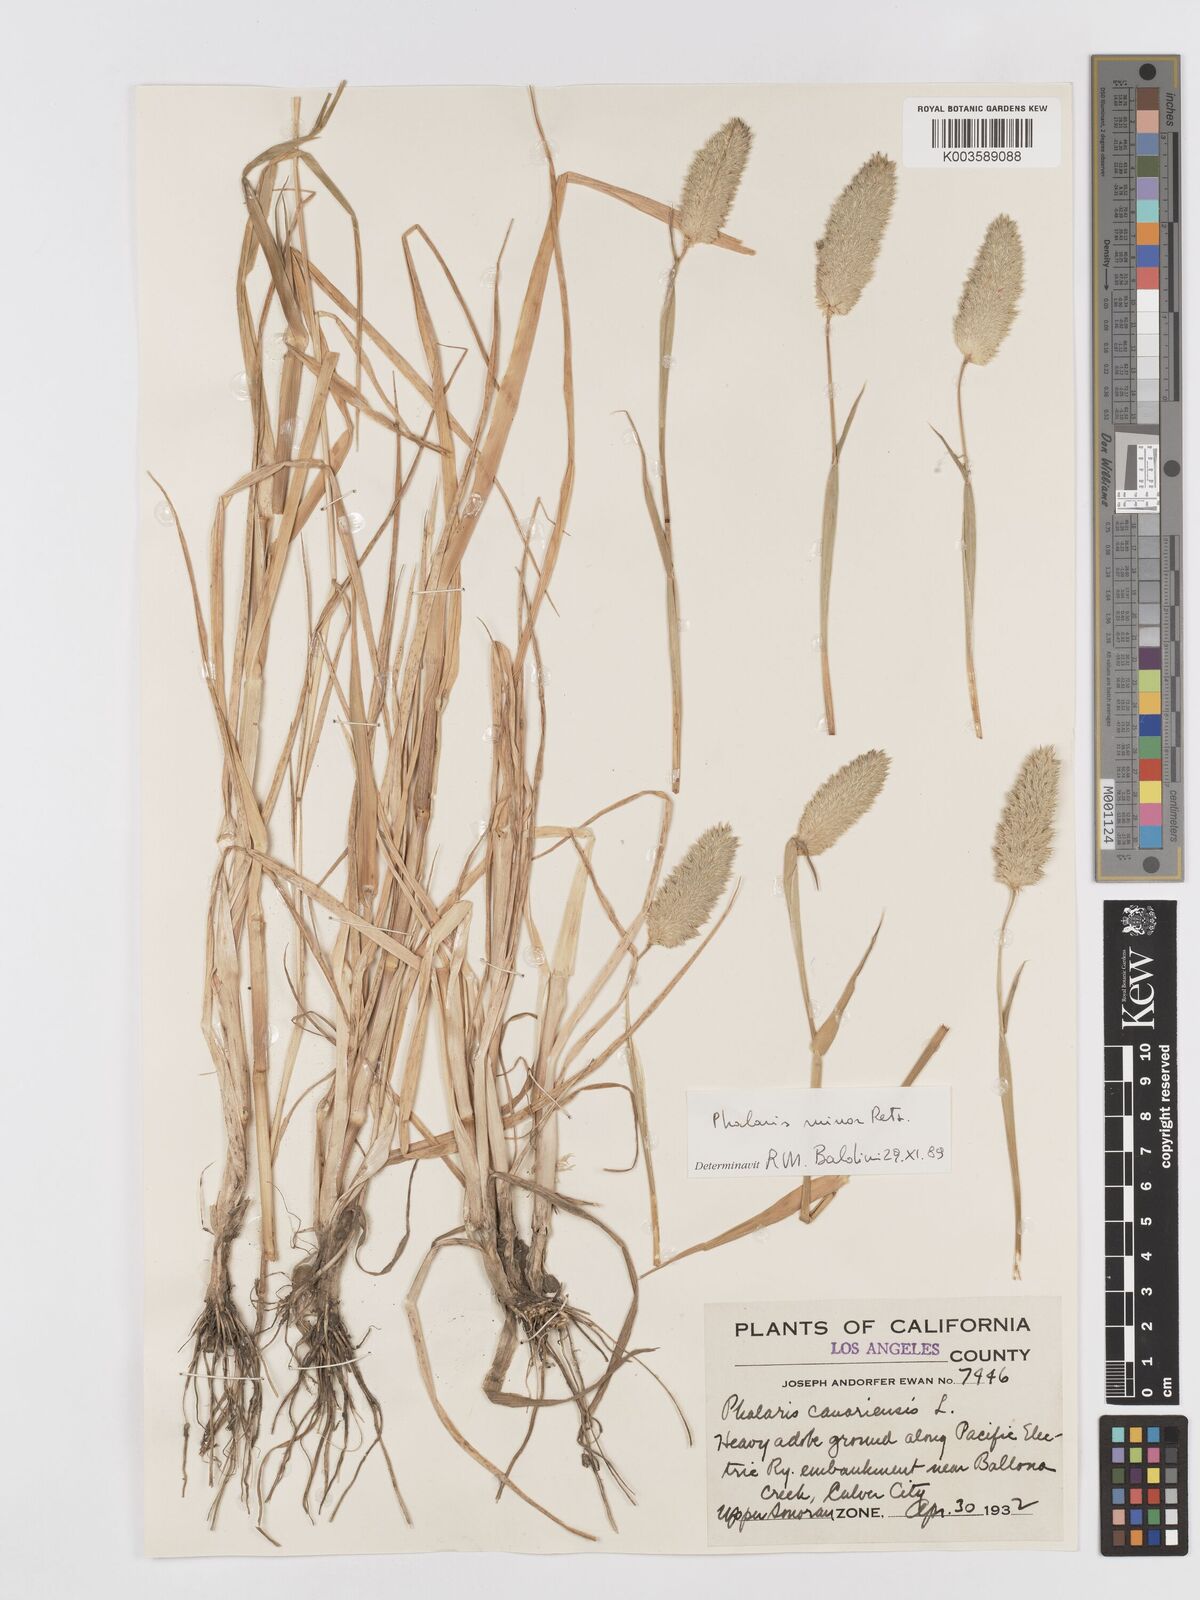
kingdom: Plantae
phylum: Tracheophyta
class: Liliopsida
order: Poales
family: Poaceae
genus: Phalaris
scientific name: Phalaris minor
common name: Littleseed canarygrass
